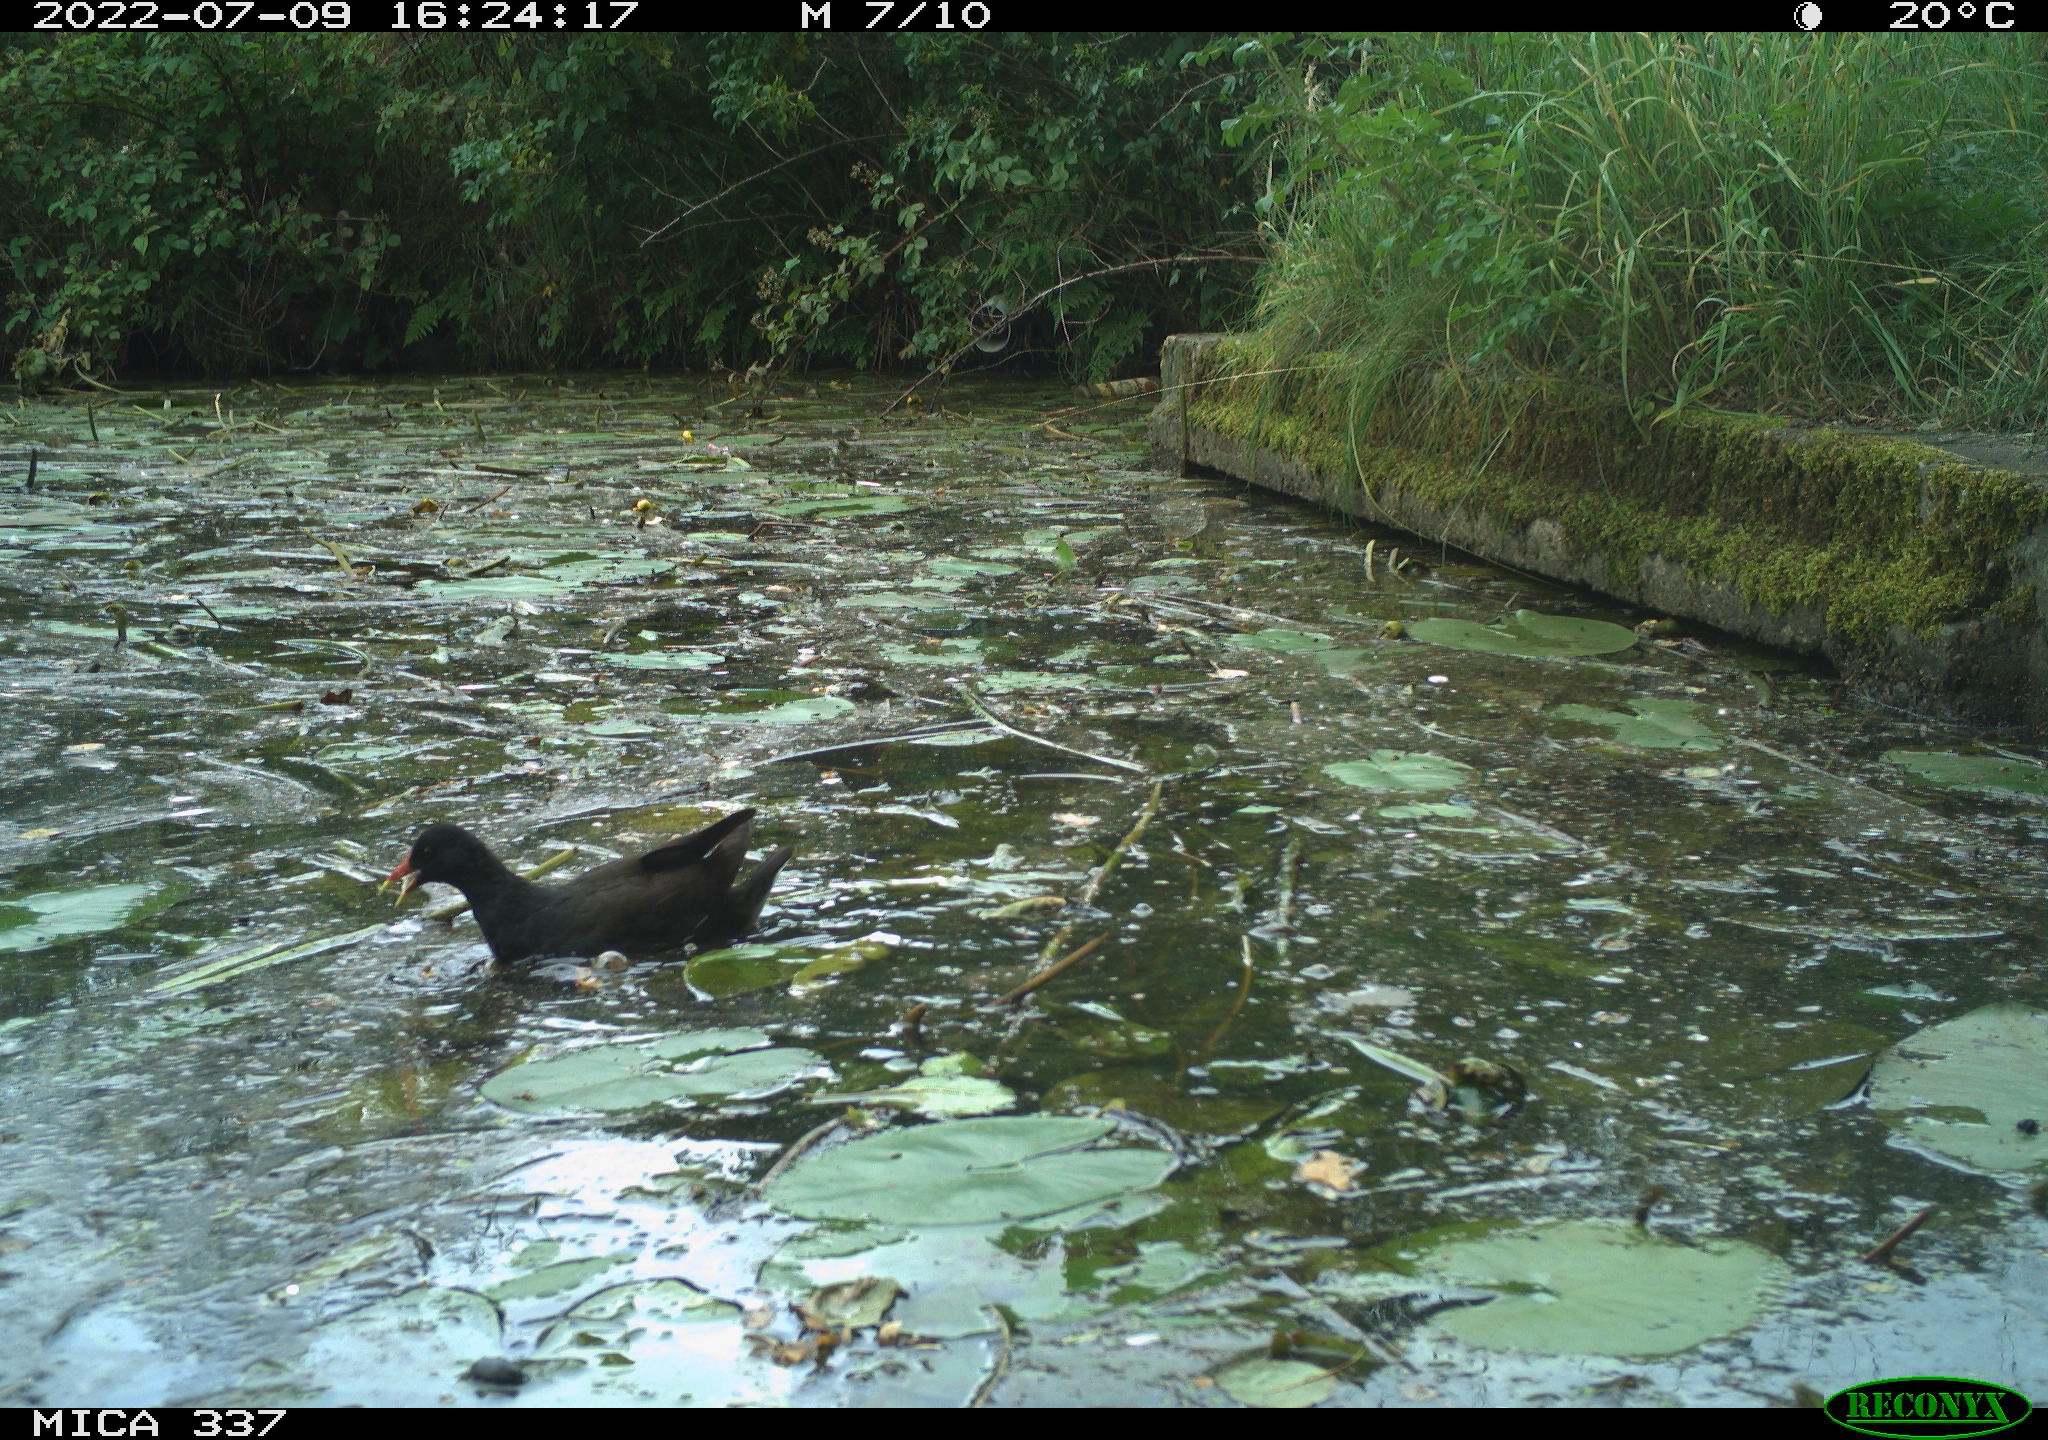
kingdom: Animalia
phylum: Chordata
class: Aves
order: Gruiformes
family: Rallidae
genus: Gallinula
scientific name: Gallinula chloropus
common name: Common moorhen
